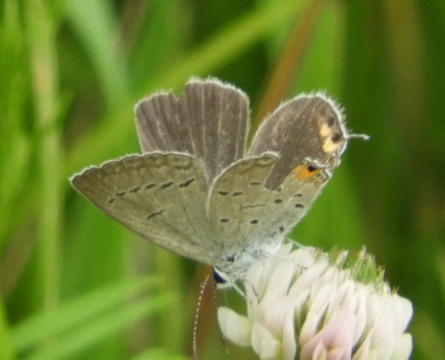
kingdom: Animalia
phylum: Arthropoda
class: Insecta
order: Lepidoptera
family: Lycaenidae
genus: Elkalyce
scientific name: Elkalyce comyntas
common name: Eastern Tailed-Blue
